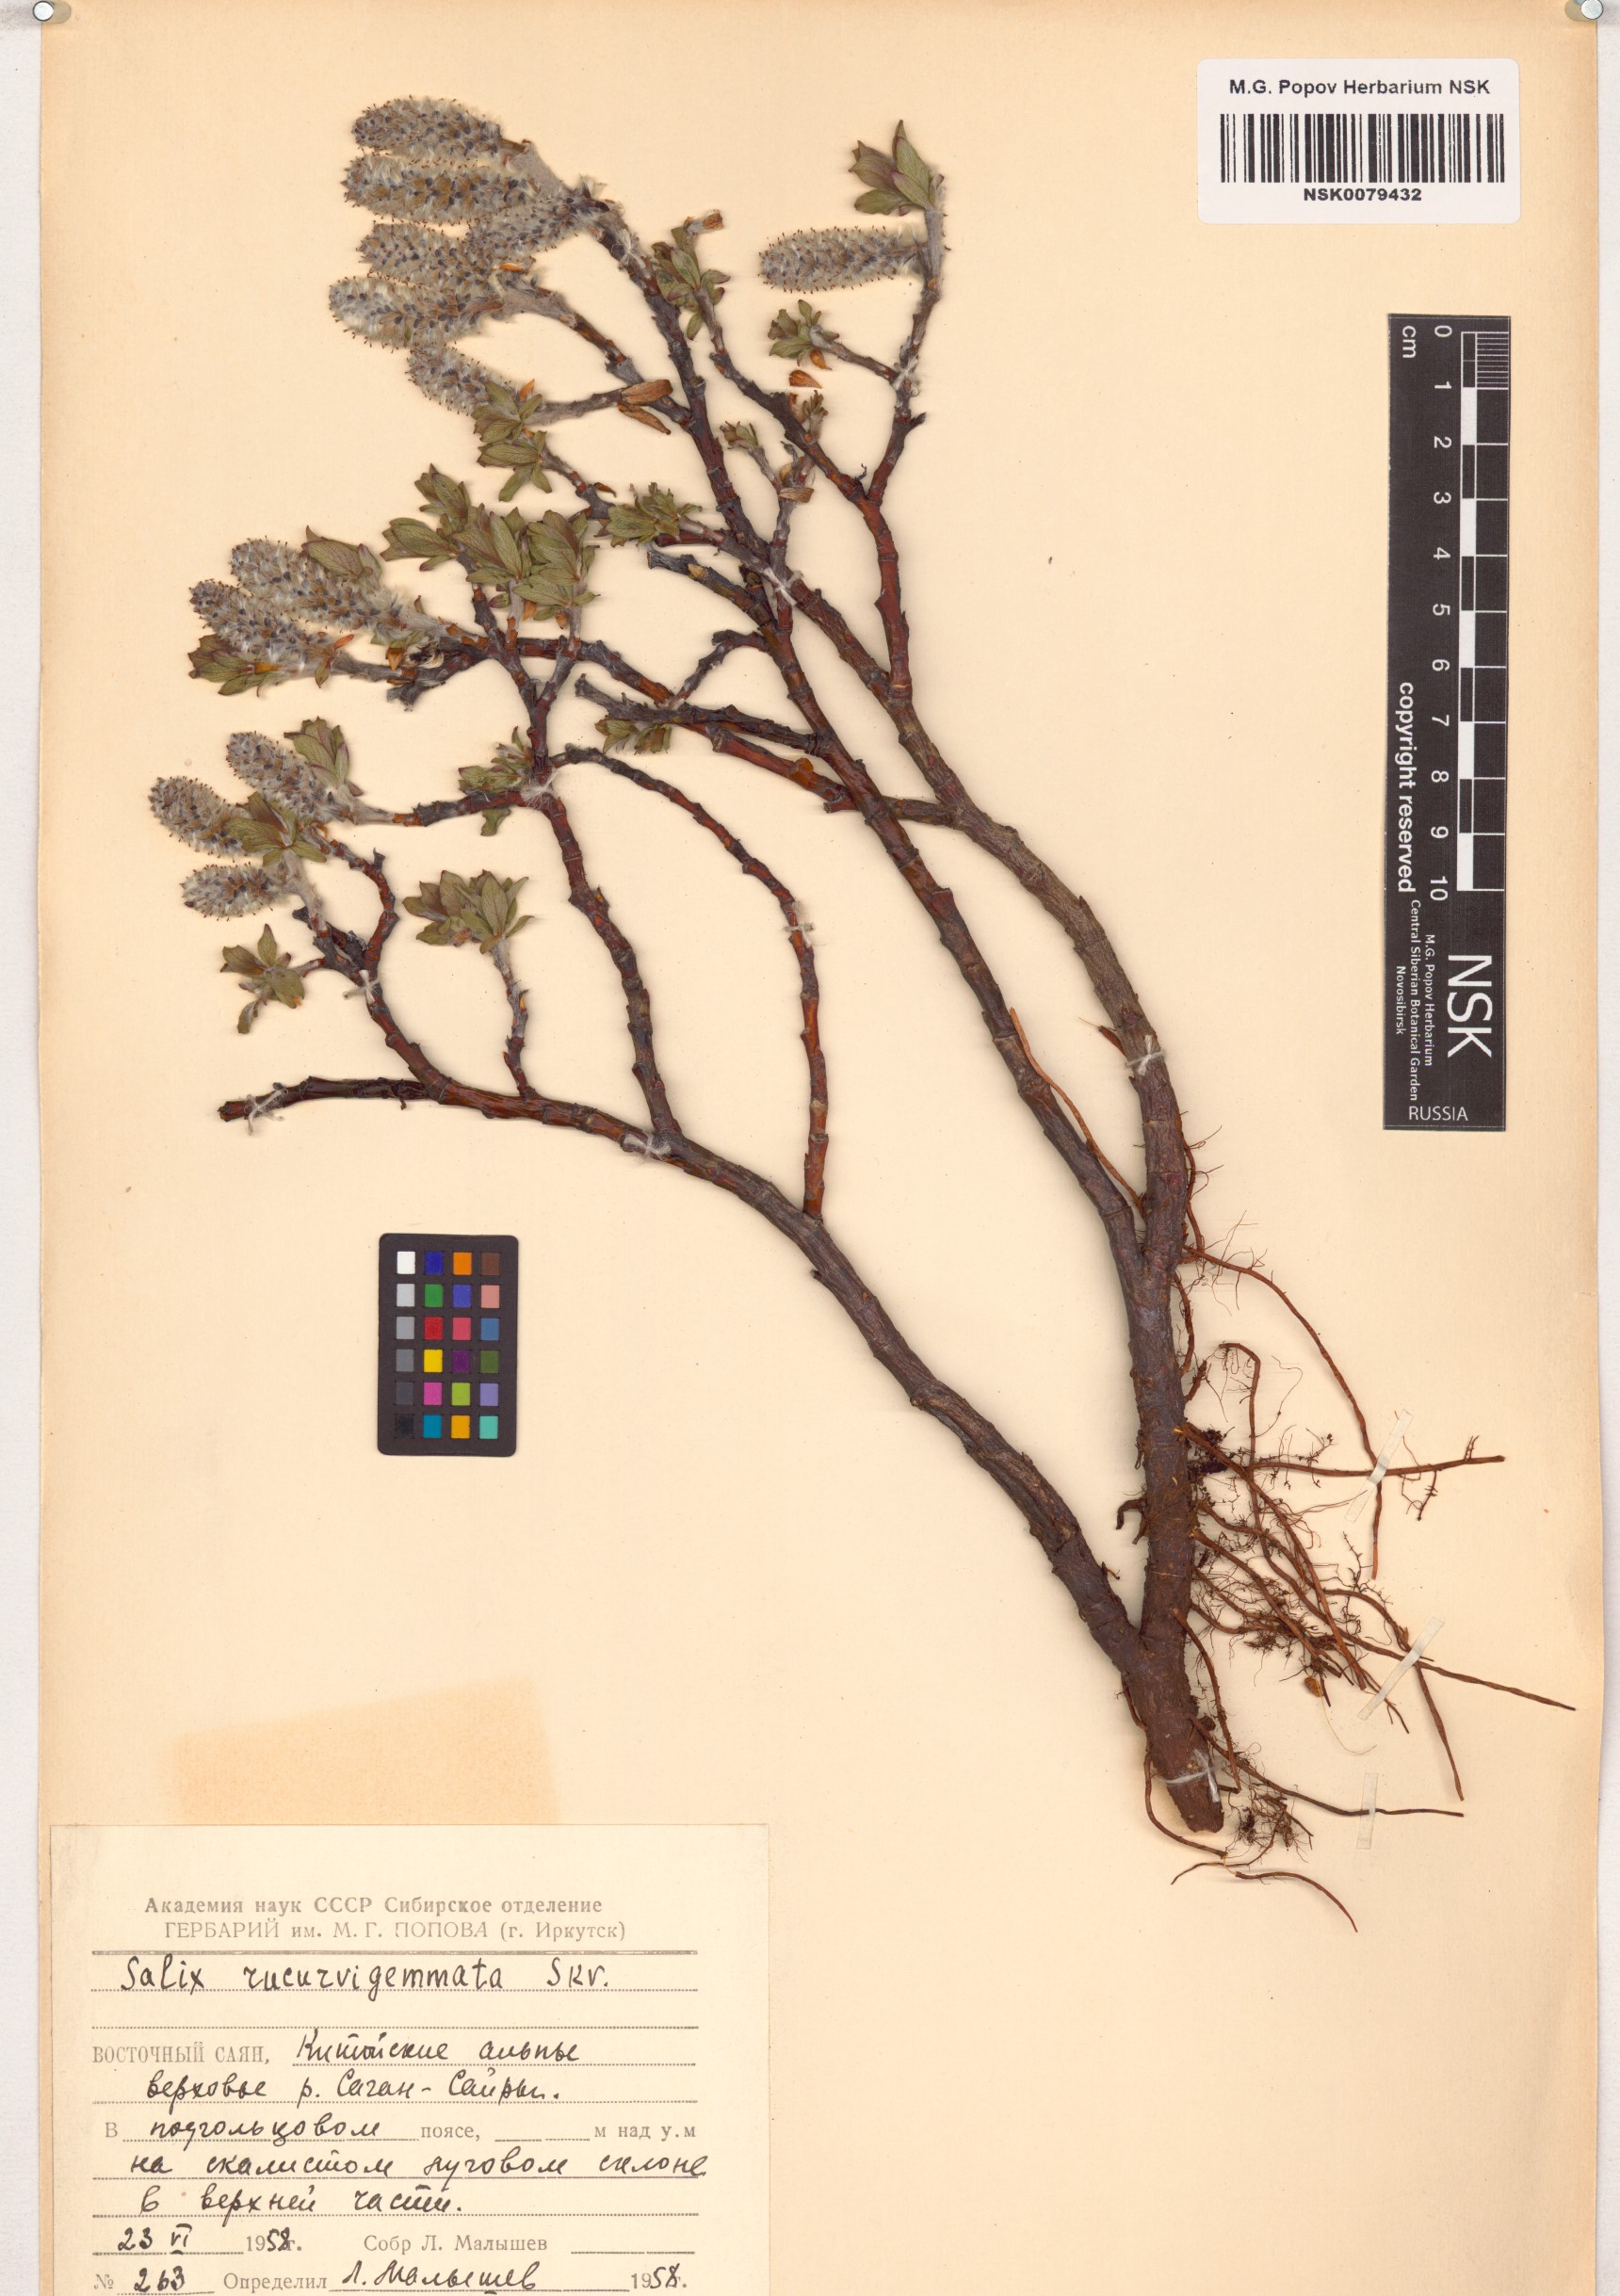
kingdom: Plantae
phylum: Tracheophyta
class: Magnoliopsida
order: Malpighiales
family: Salicaceae
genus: Salix
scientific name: Salix recurvigemmata
